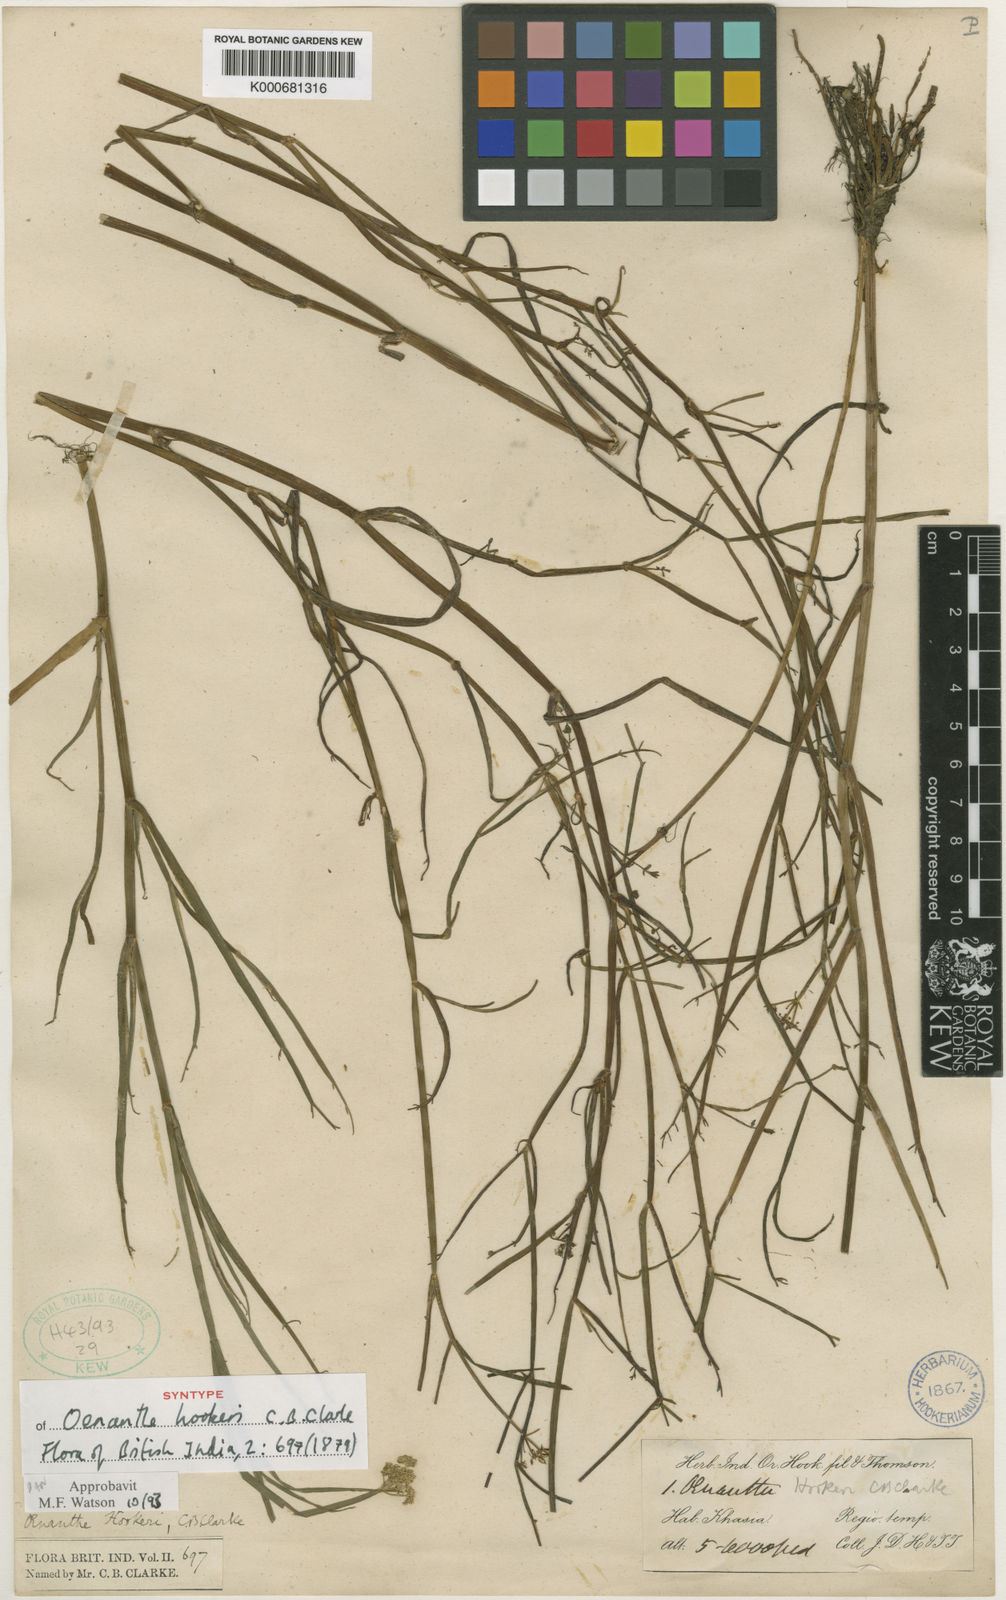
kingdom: Plantae
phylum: Tracheophyta
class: Magnoliopsida
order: Apiales
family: Apiaceae
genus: Oenanthe
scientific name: Oenanthe hookeri
